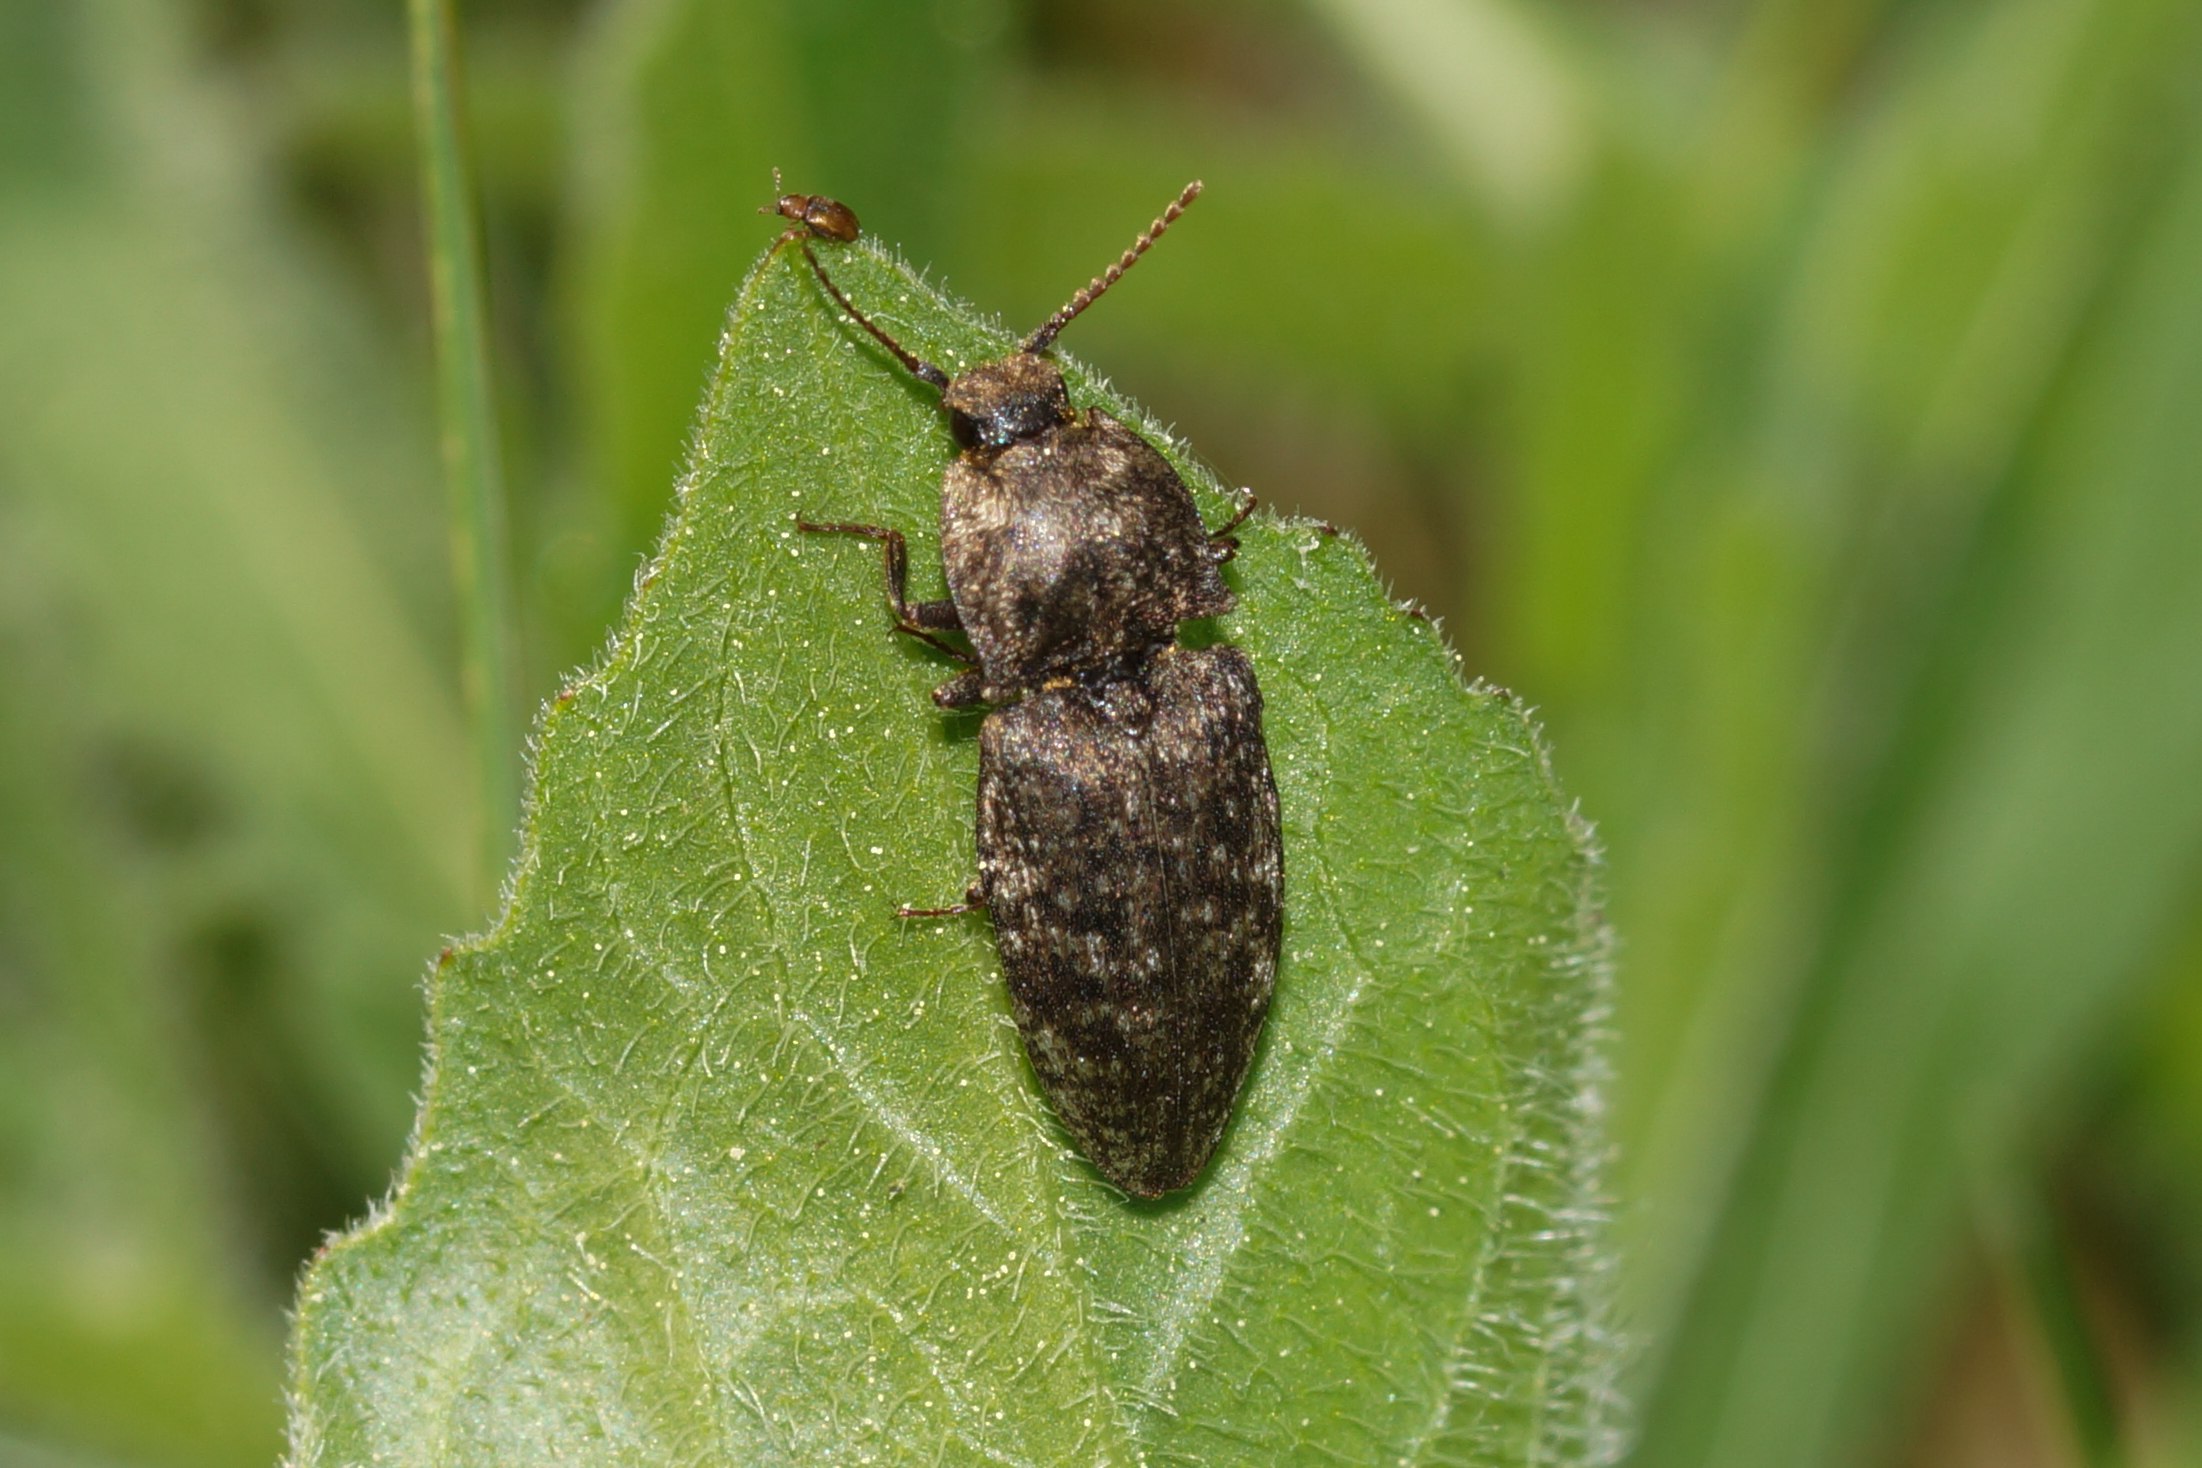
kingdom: Animalia
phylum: Arthropoda
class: Insecta
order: Coleoptera
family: Elateridae
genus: Agrypnus
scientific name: Agrypnus murinus
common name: Musegrå smælder
